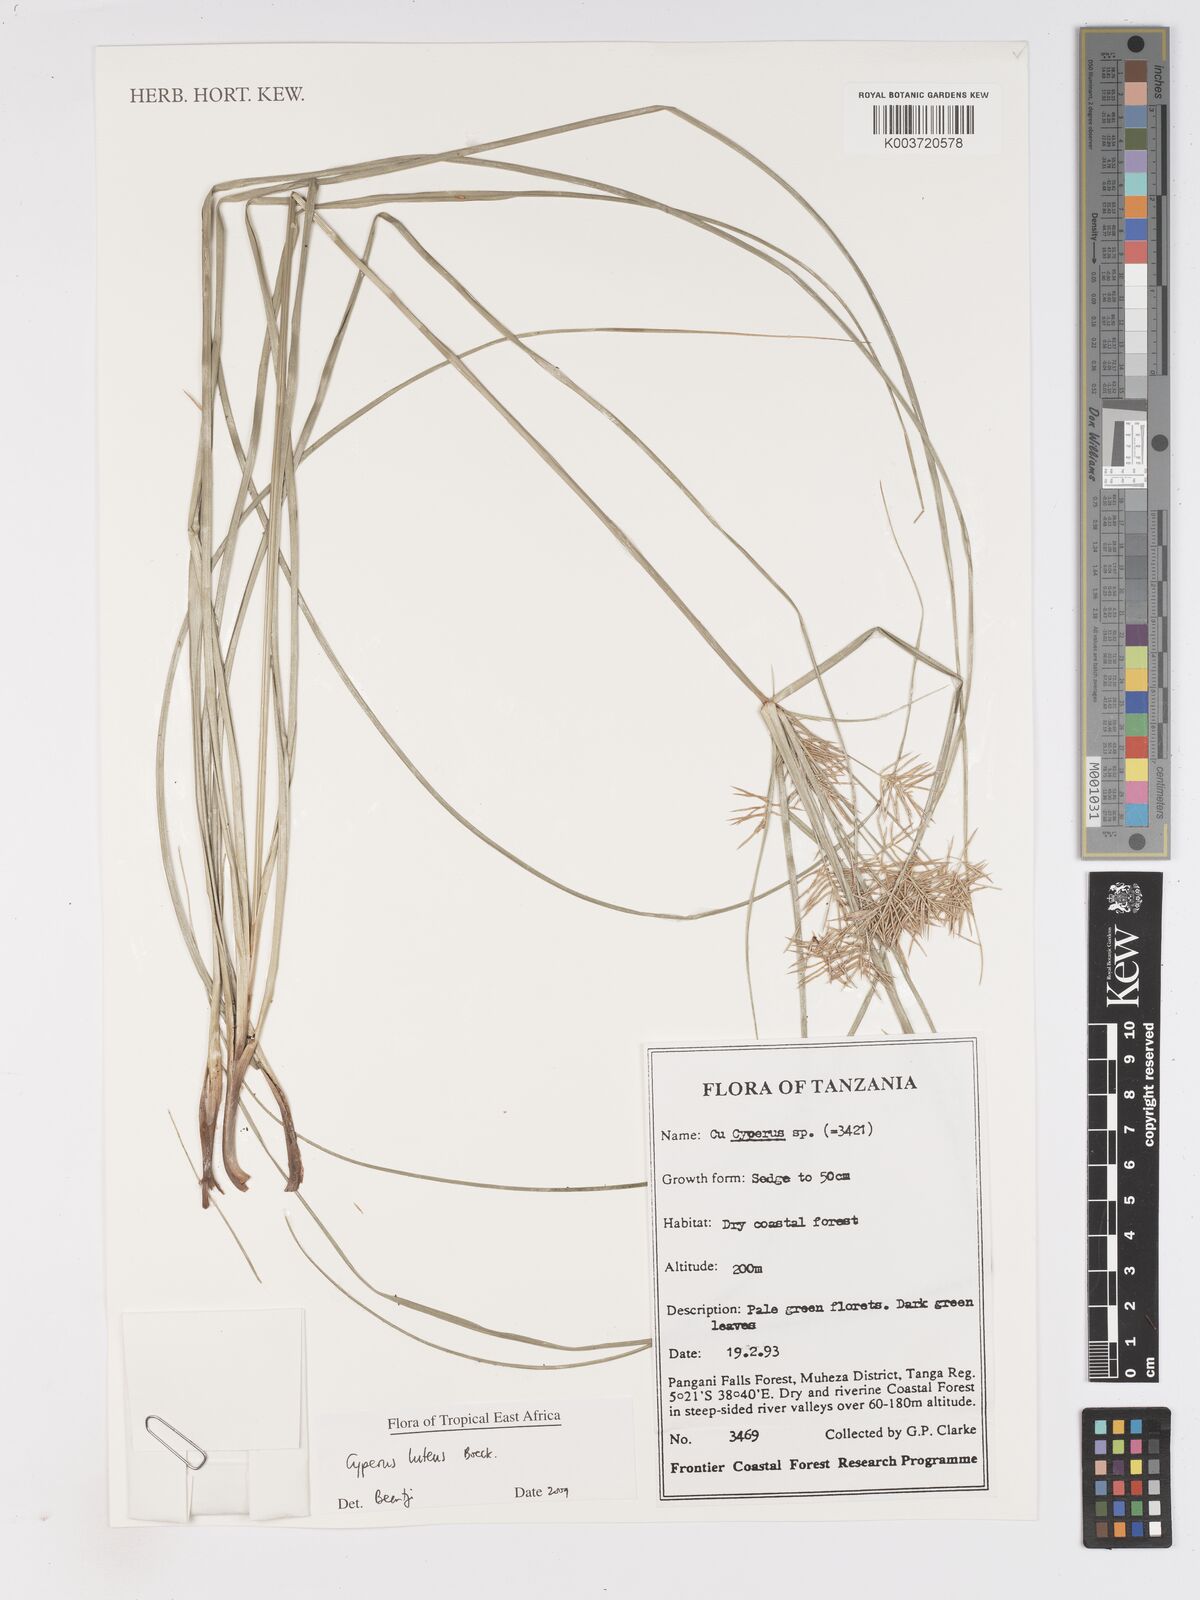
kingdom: Plantae
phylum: Tracheophyta
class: Liliopsida
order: Poales
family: Cyperaceae
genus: Cyperus
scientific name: Cyperus luteus
